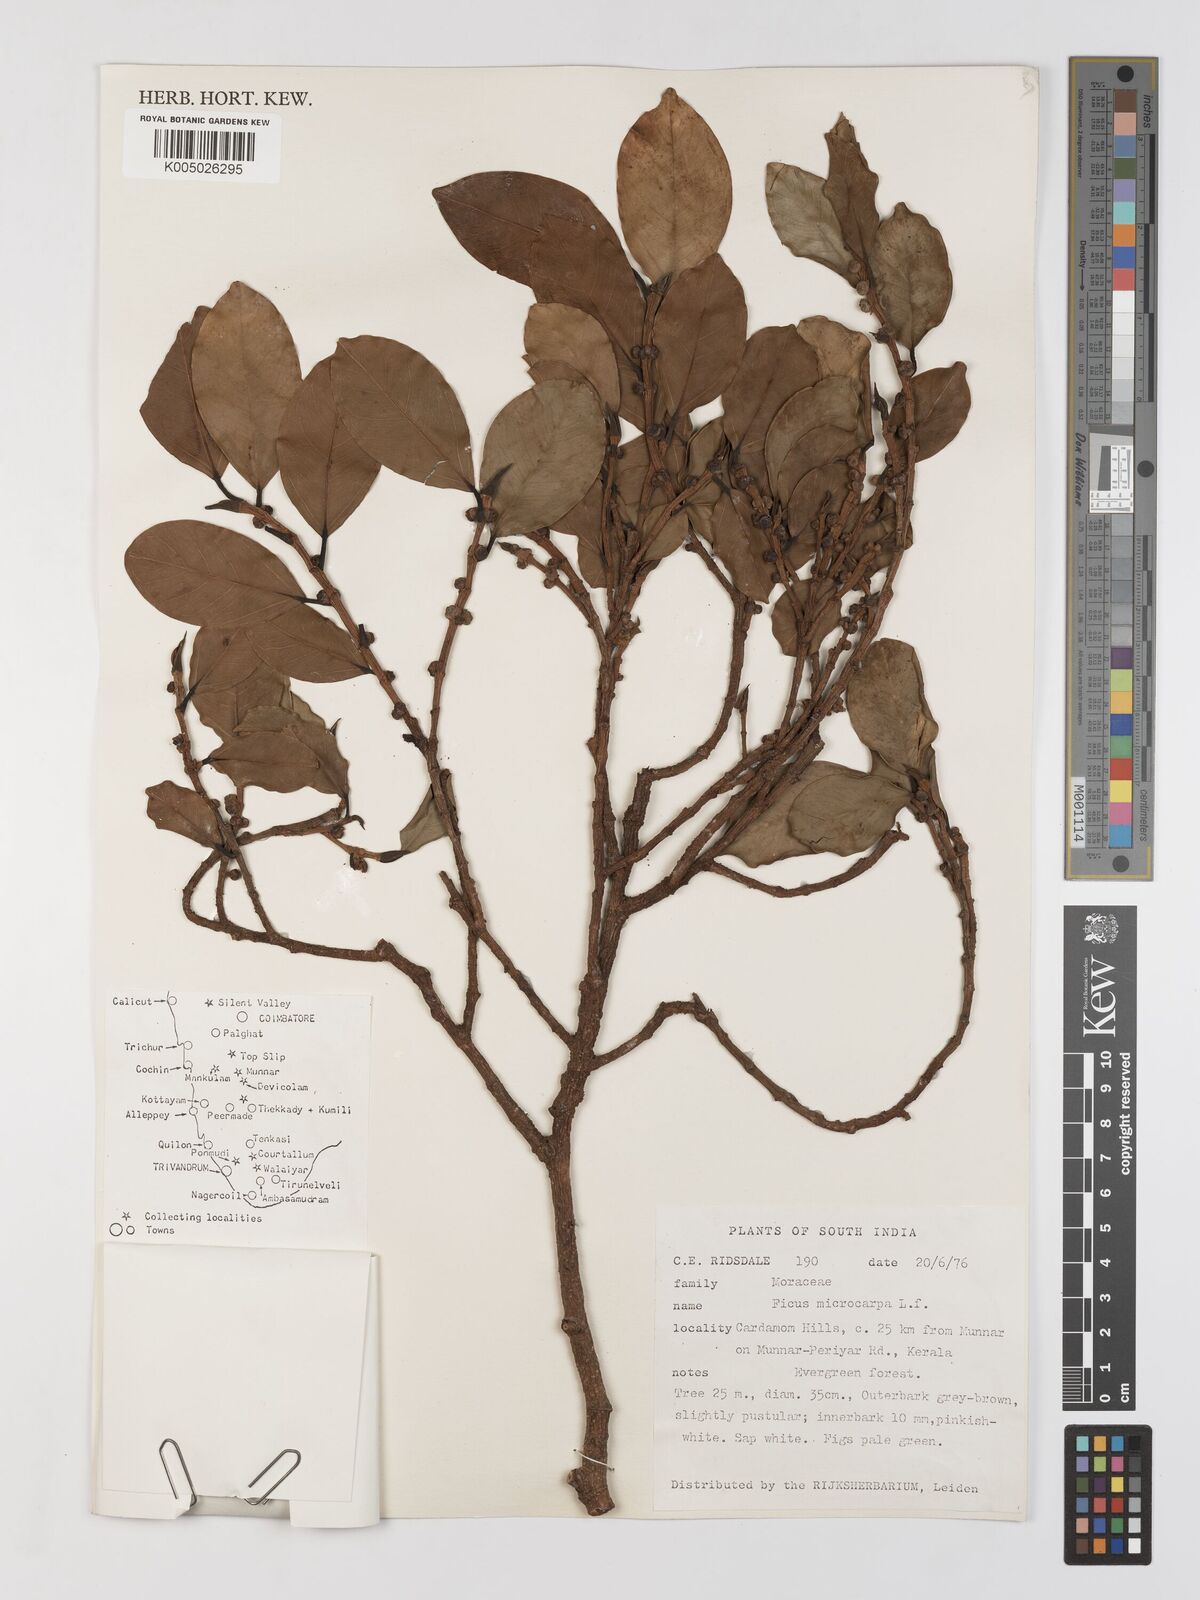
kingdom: Plantae
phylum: Tracheophyta
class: Magnoliopsida
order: Rosales
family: Moraceae
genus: Ficus
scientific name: Ficus
